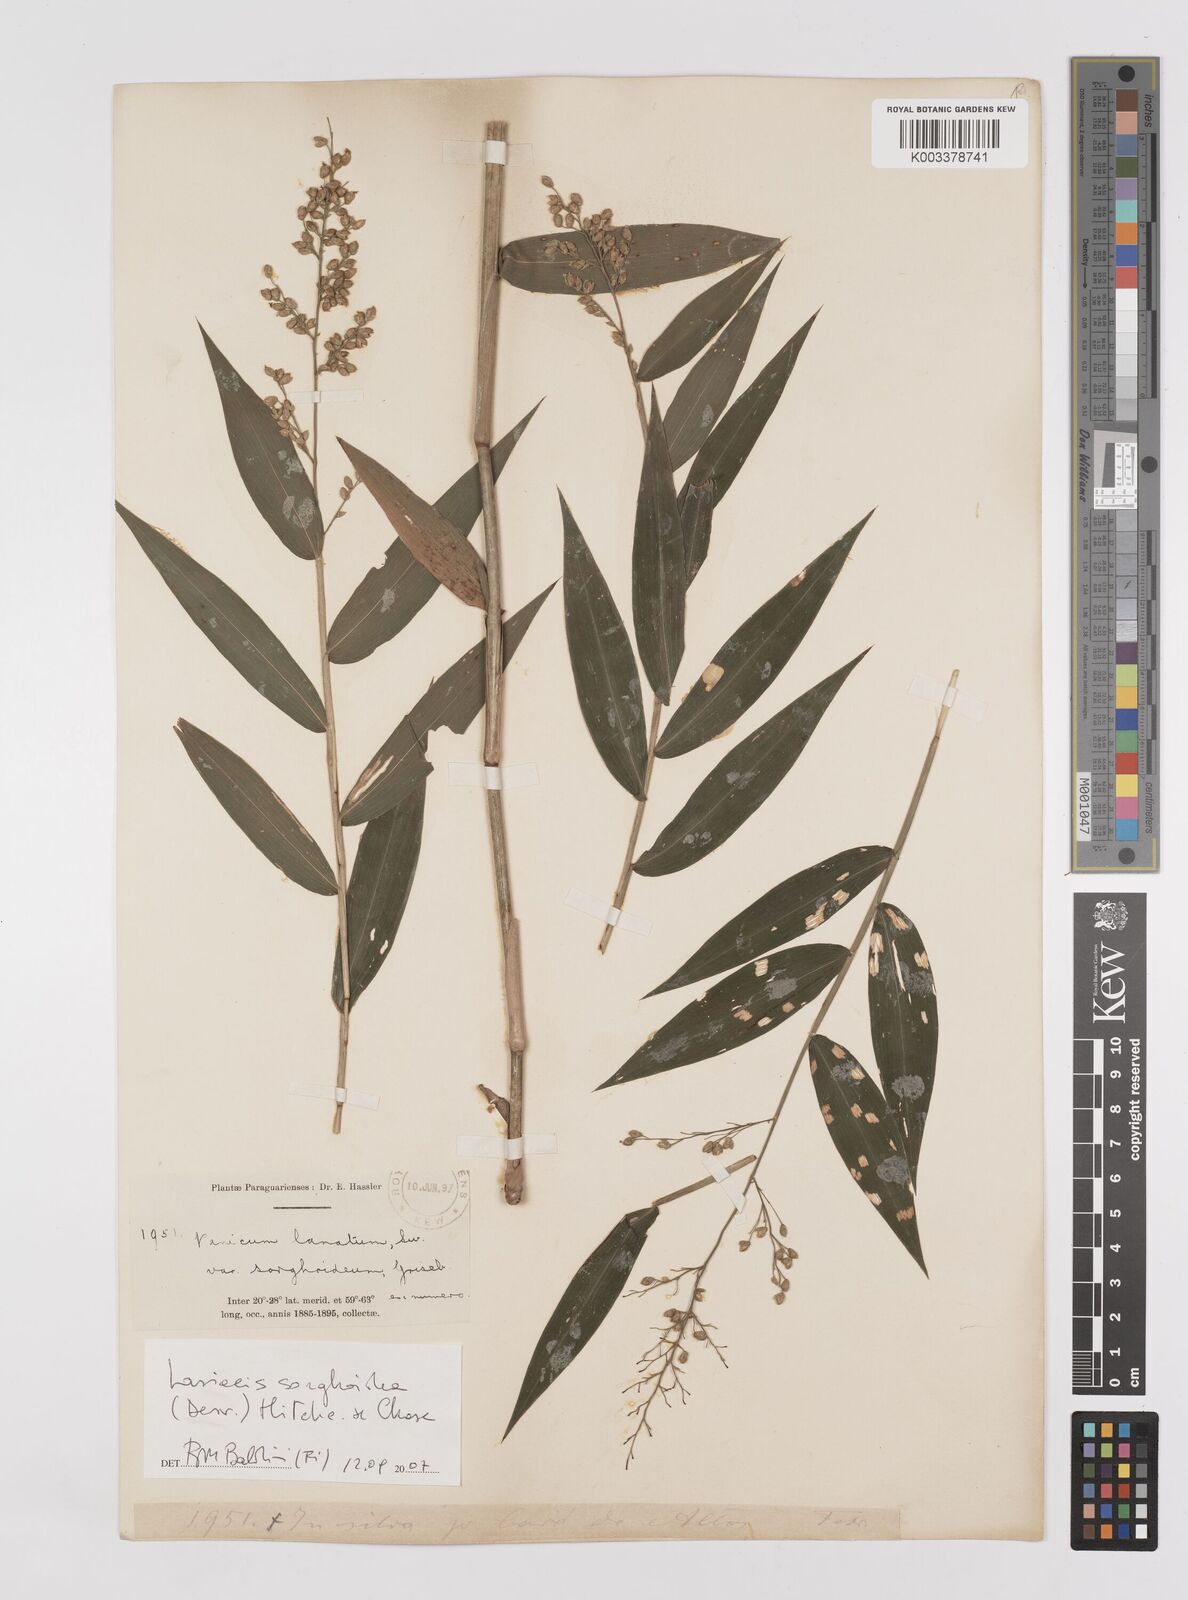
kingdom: Plantae
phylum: Tracheophyta
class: Liliopsida
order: Poales
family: Poaceae
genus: Lasiacis
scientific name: Lasiacis maculata
